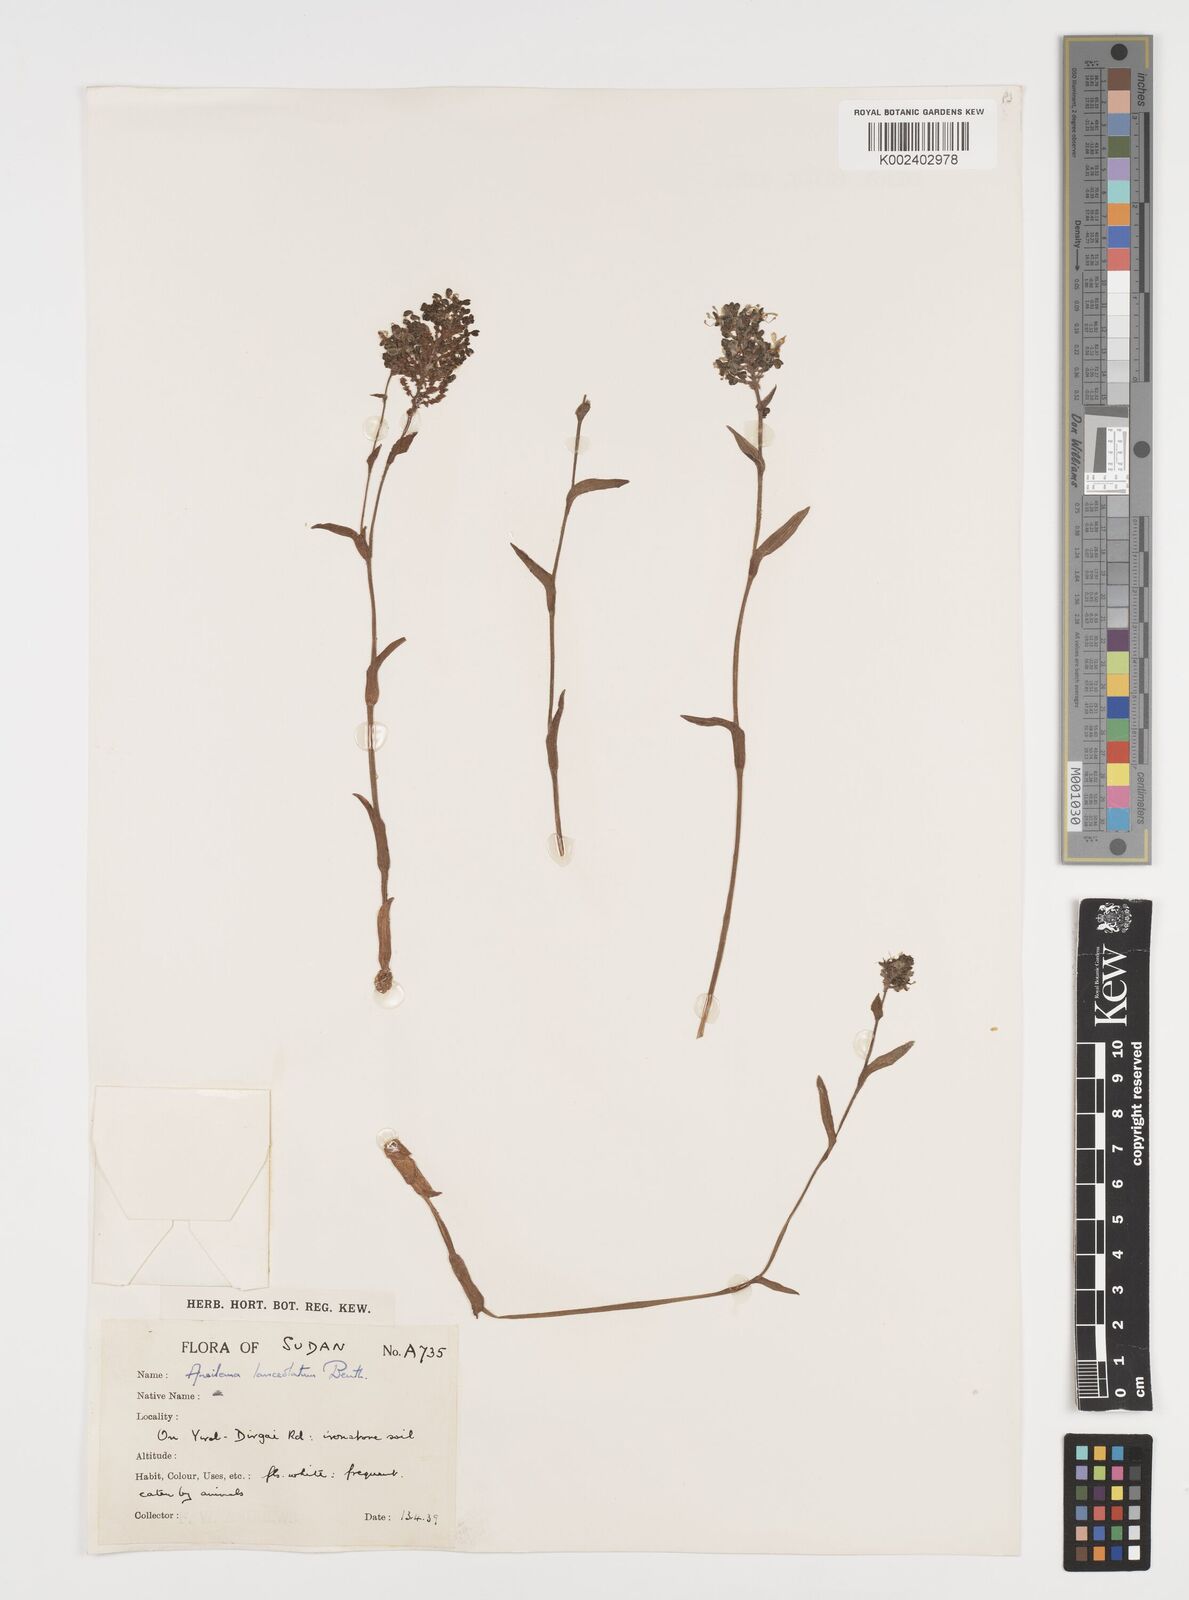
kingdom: Plantae
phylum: Tracheophyta
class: Liliopsida
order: Commelinales
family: Commelinaceae
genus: Aneilema
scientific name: Aneilema lanceolatum
